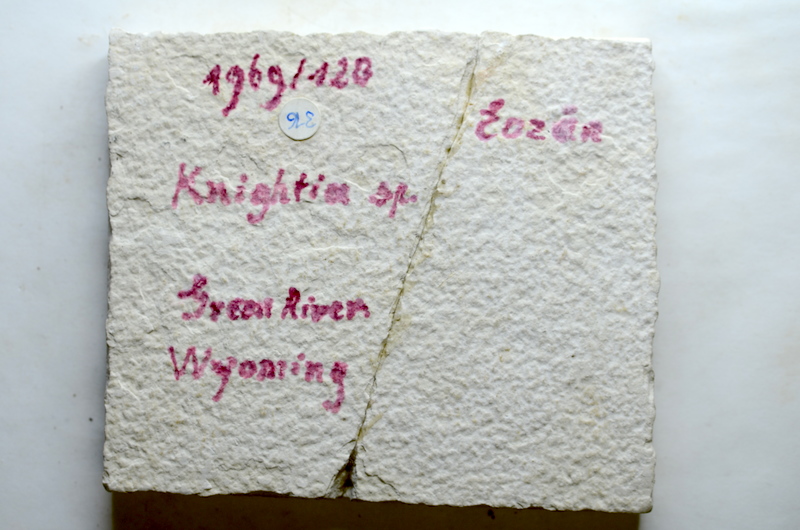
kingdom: Animalia
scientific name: Animalia
